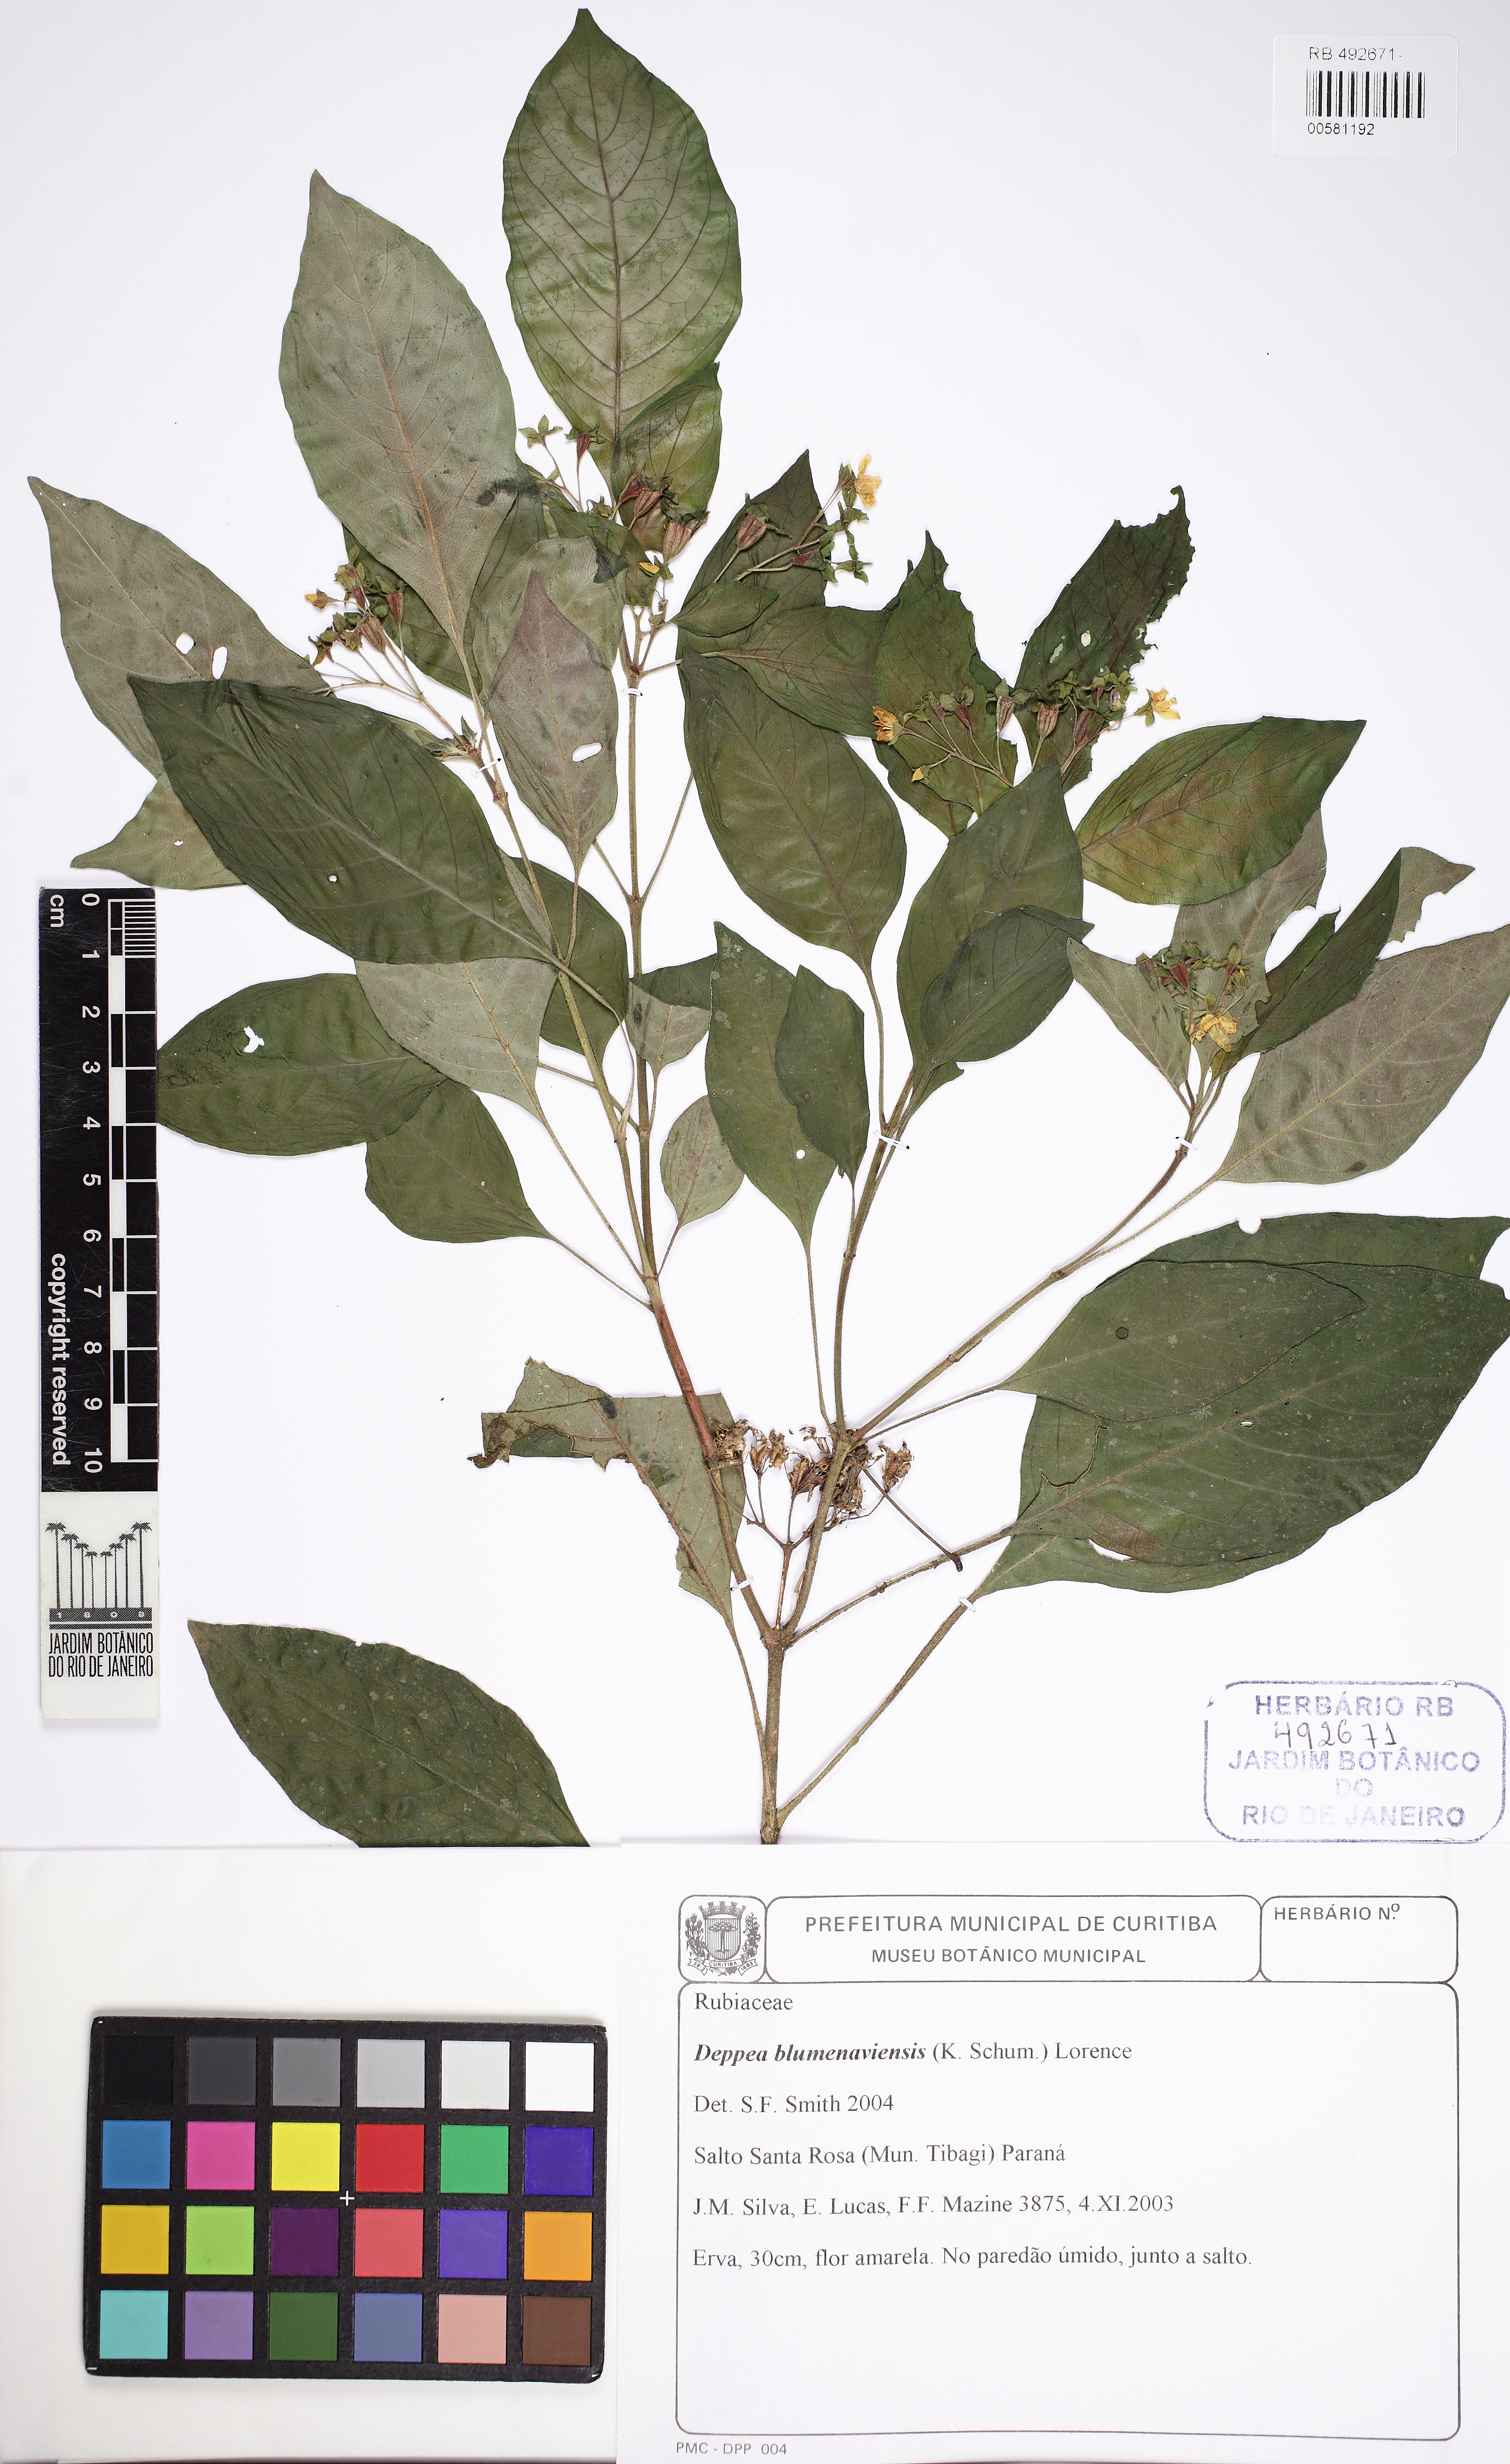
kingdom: Plantae
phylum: Tracheophyta
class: Magnoliopsida
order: Gentianales
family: Rubiaceae
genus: Deppea
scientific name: Deppea blumenaviensis
